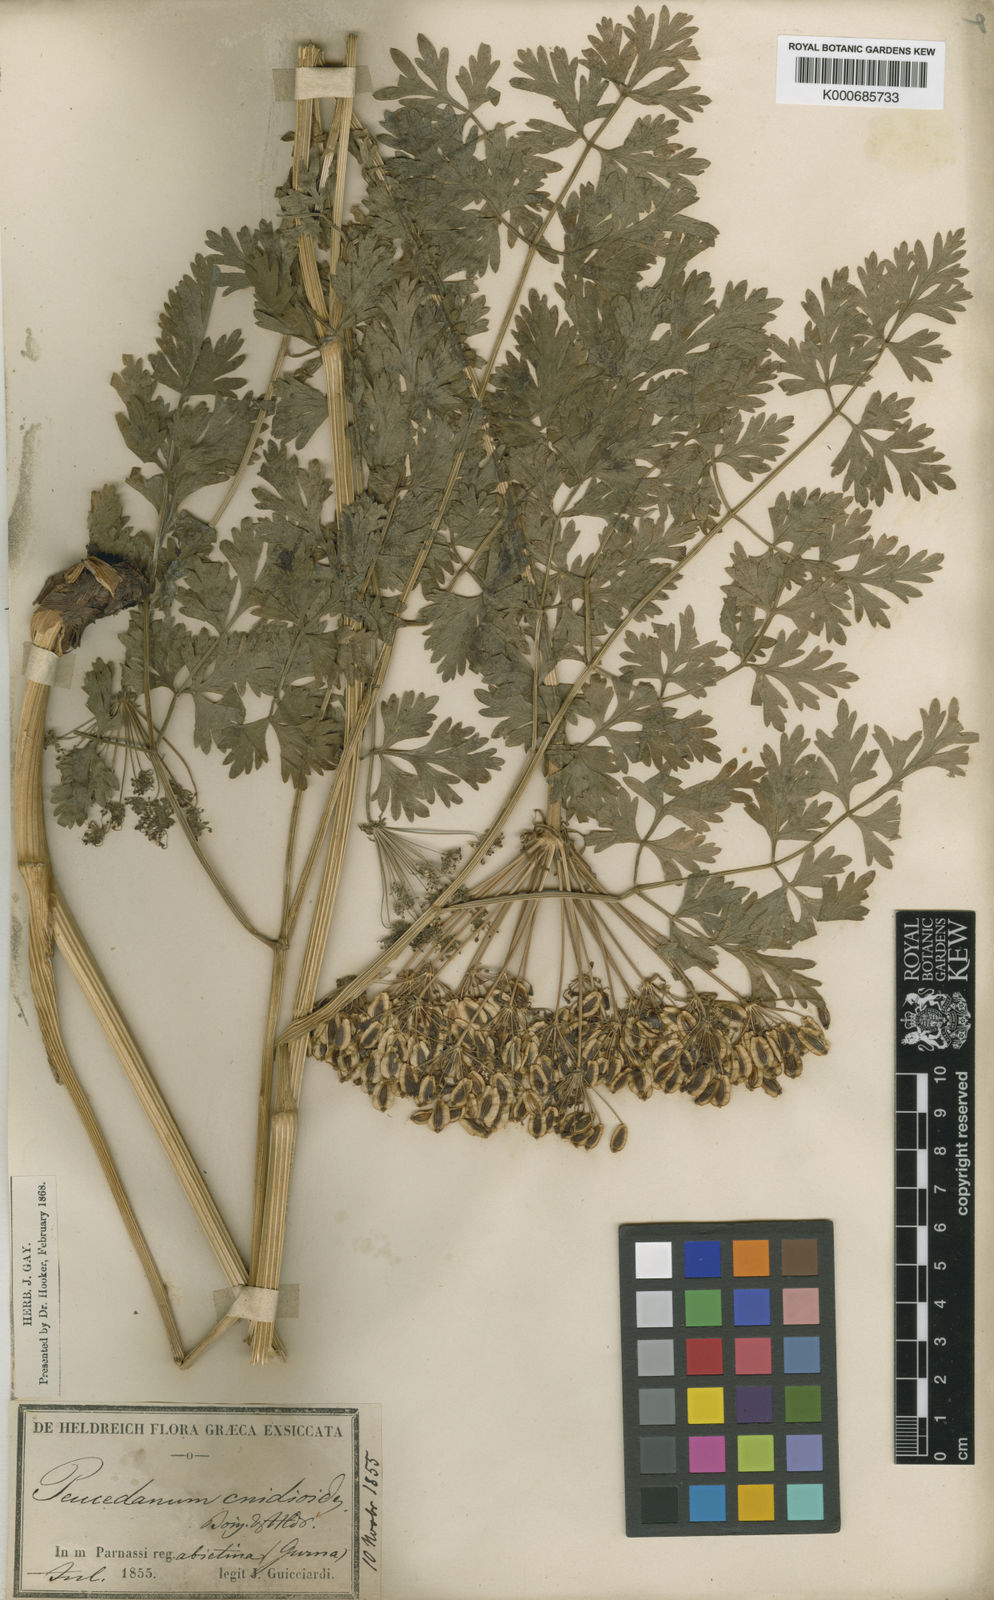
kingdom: Plantae
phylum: Tracheophyta
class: Magnoliopsida
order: Apiales
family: Apiaceae
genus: Peucedanum
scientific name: Peucedanum
